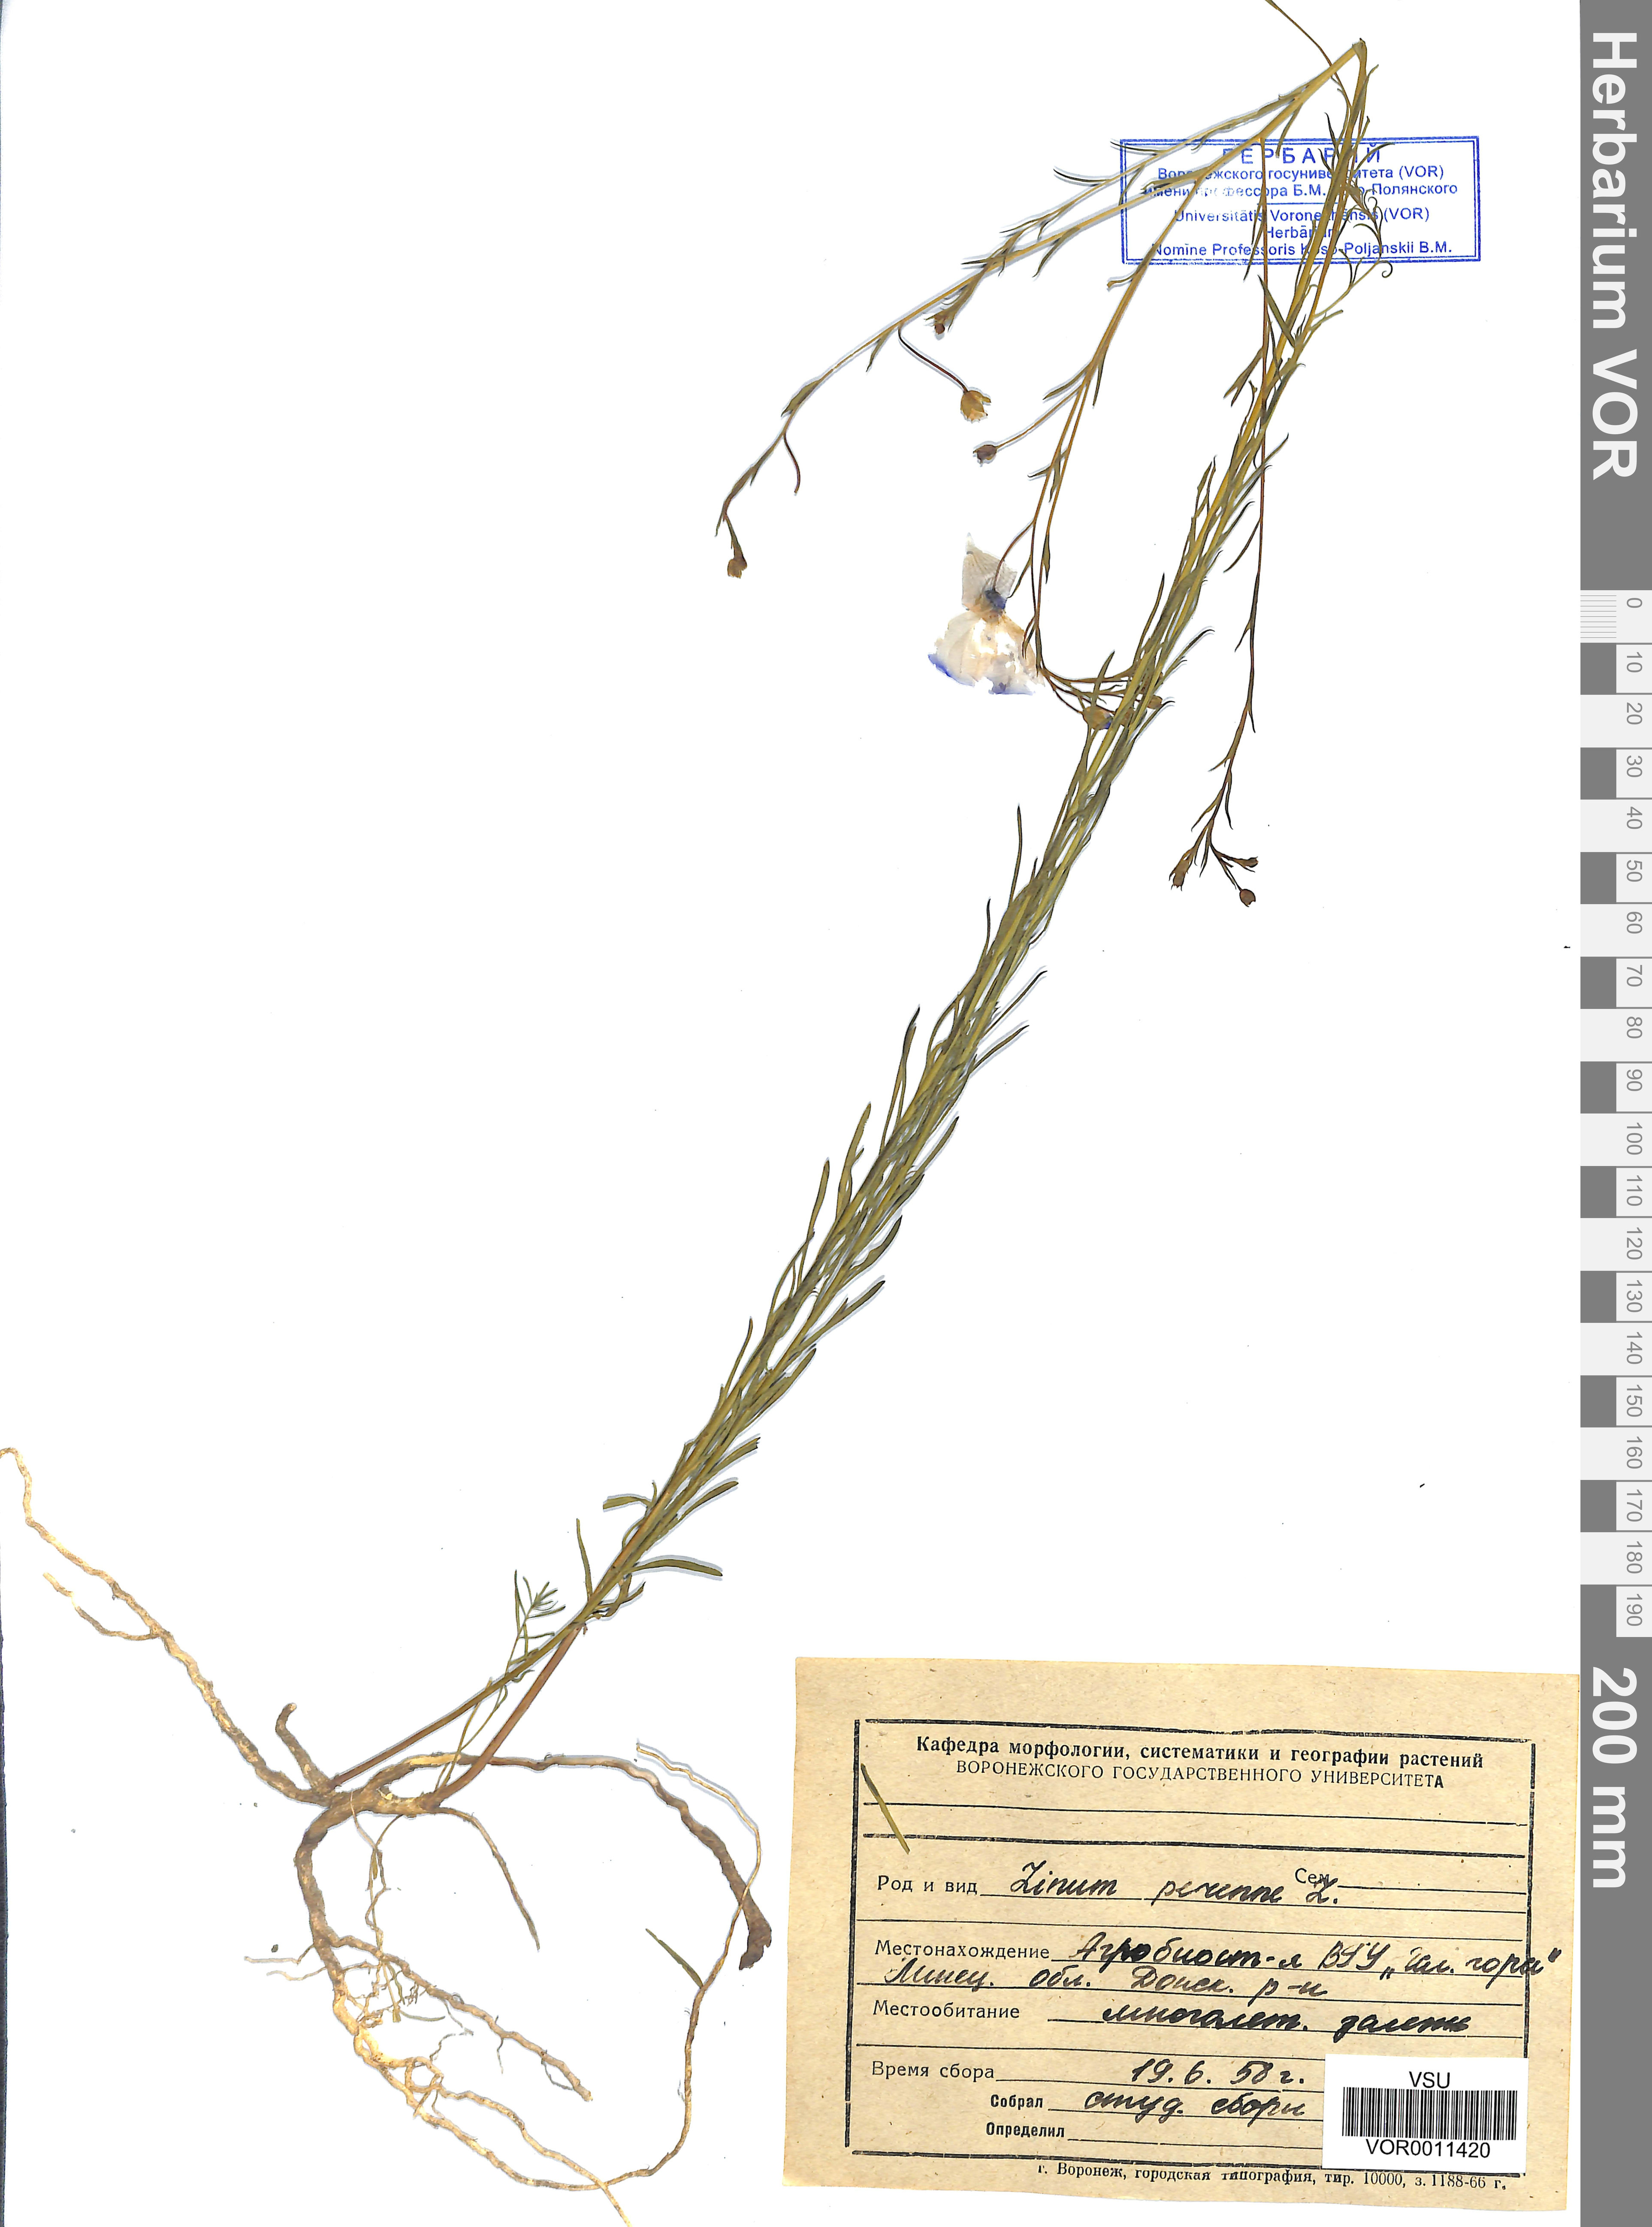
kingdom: Plantae
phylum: Tracheophyta
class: Magnoliopsida
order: Malpighiales
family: Linaceae
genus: Linum
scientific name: Linum perenne
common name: Blue flax
